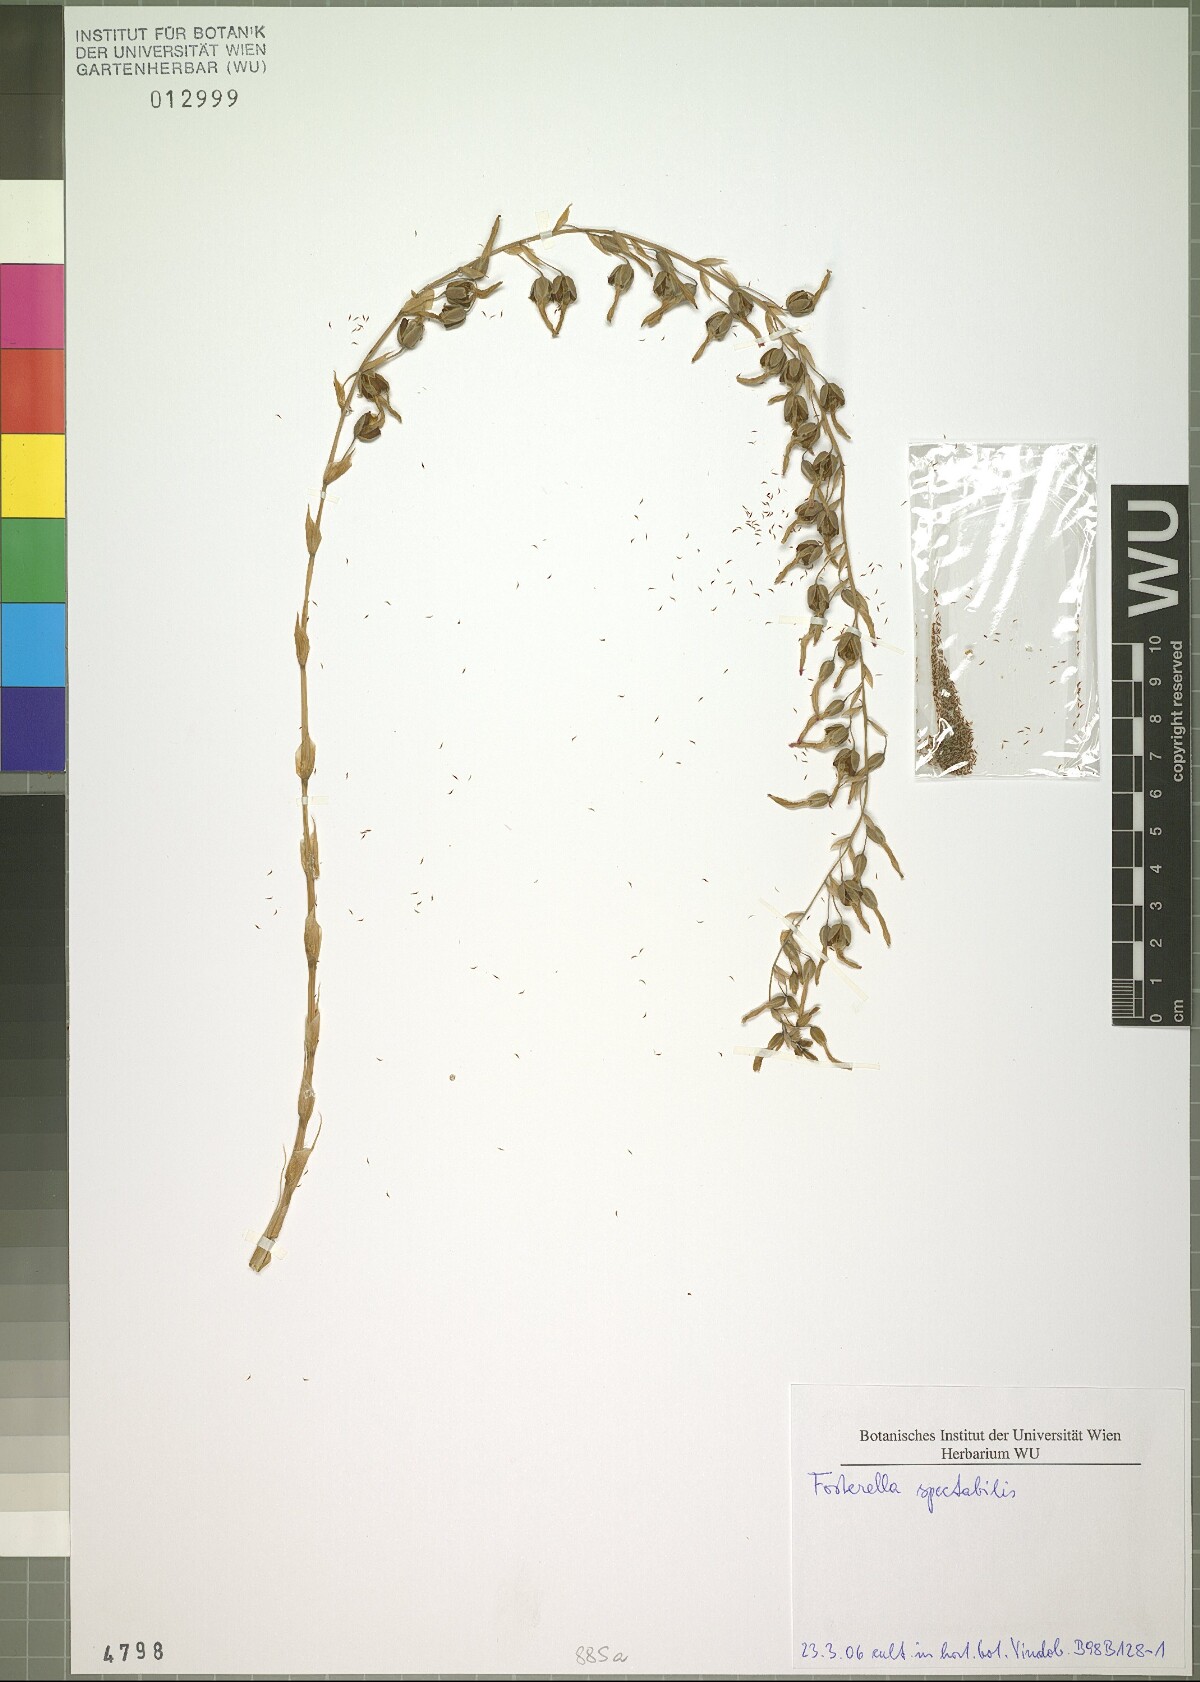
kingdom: Plantae
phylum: Tracheophyta
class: Liliopsida
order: Poales
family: Bromeliaceae
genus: Fosterella
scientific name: Fosterella spectabilis
